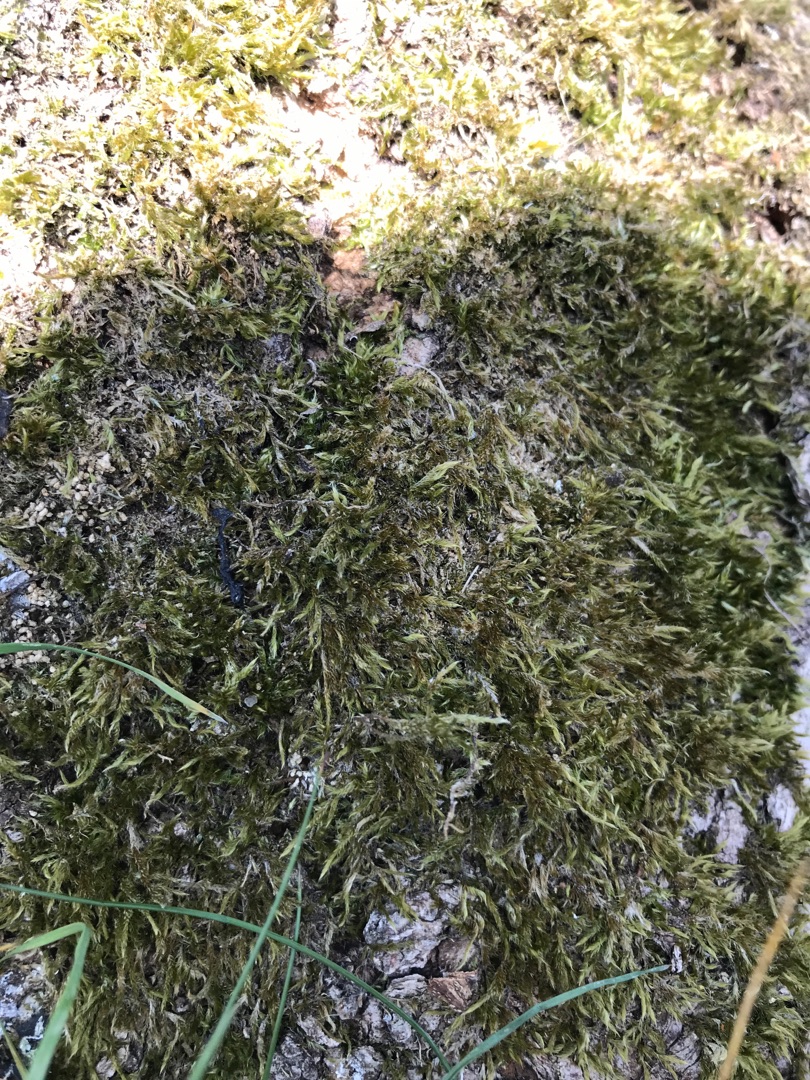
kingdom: Plantae
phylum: Bryophyta
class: Bryopsida
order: Hypnales
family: Hypnaceae
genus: Hypnum
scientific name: Hypnum
